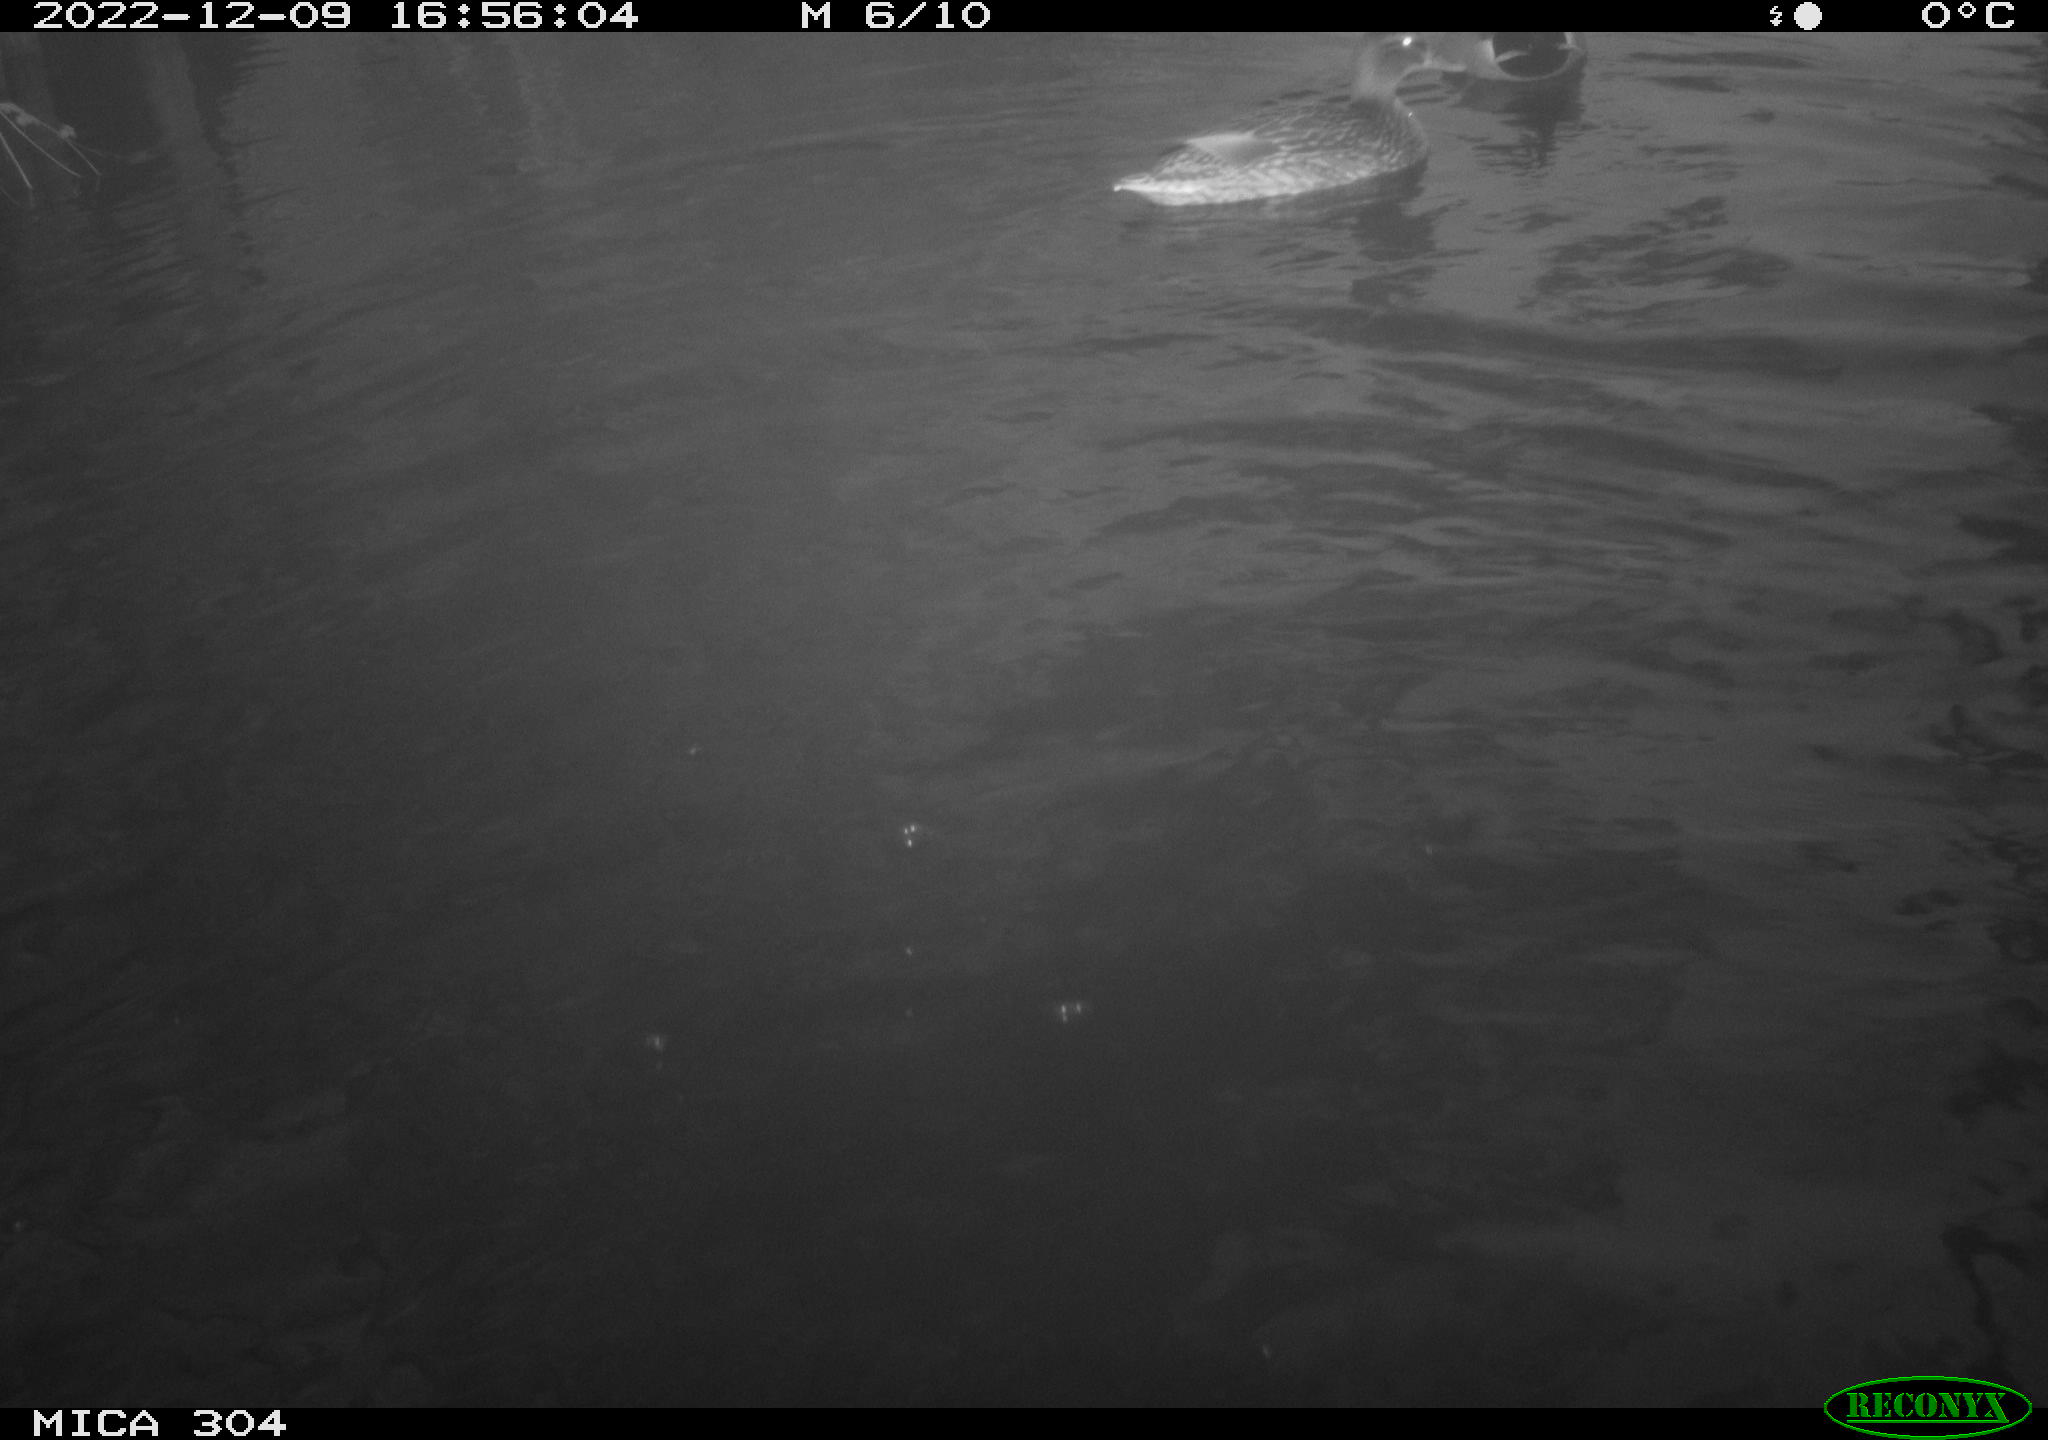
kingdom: Animalia
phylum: Chordata
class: Aves
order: Anseriformes
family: Anatidae
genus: Anas
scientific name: Anas
